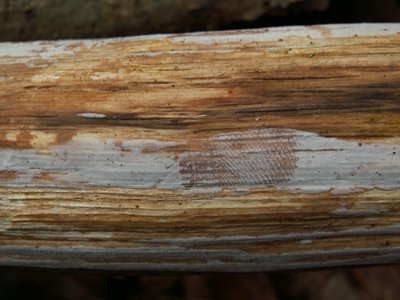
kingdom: Fungi
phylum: Basidiomycota
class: Tremellomycetes
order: Tremellales
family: Exidiaceae
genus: Exidiopsis
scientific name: Exidiopsis effusa
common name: smuk bævrehinde
